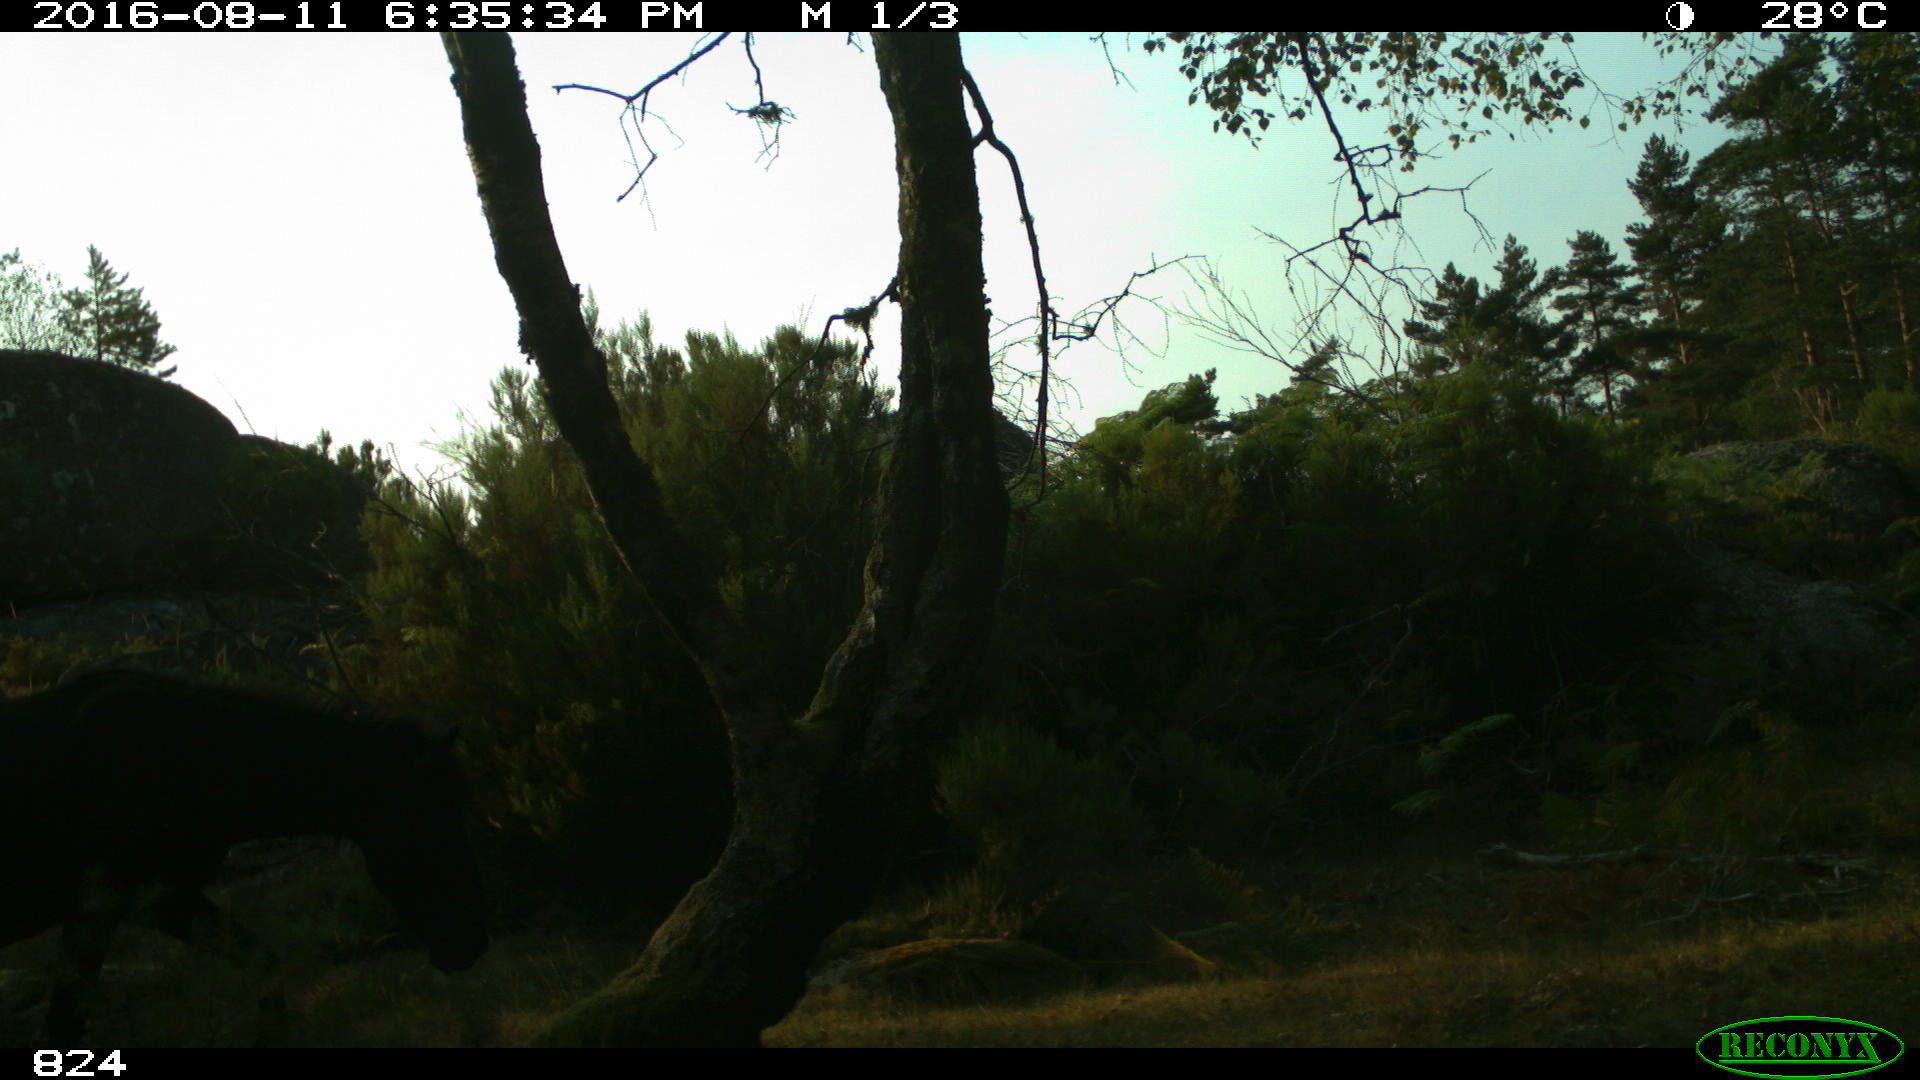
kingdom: Animalia
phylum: Chordata
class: Mammalia
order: Perissodactyla
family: Equidae
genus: Equus
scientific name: Equus caballus
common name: Horse
